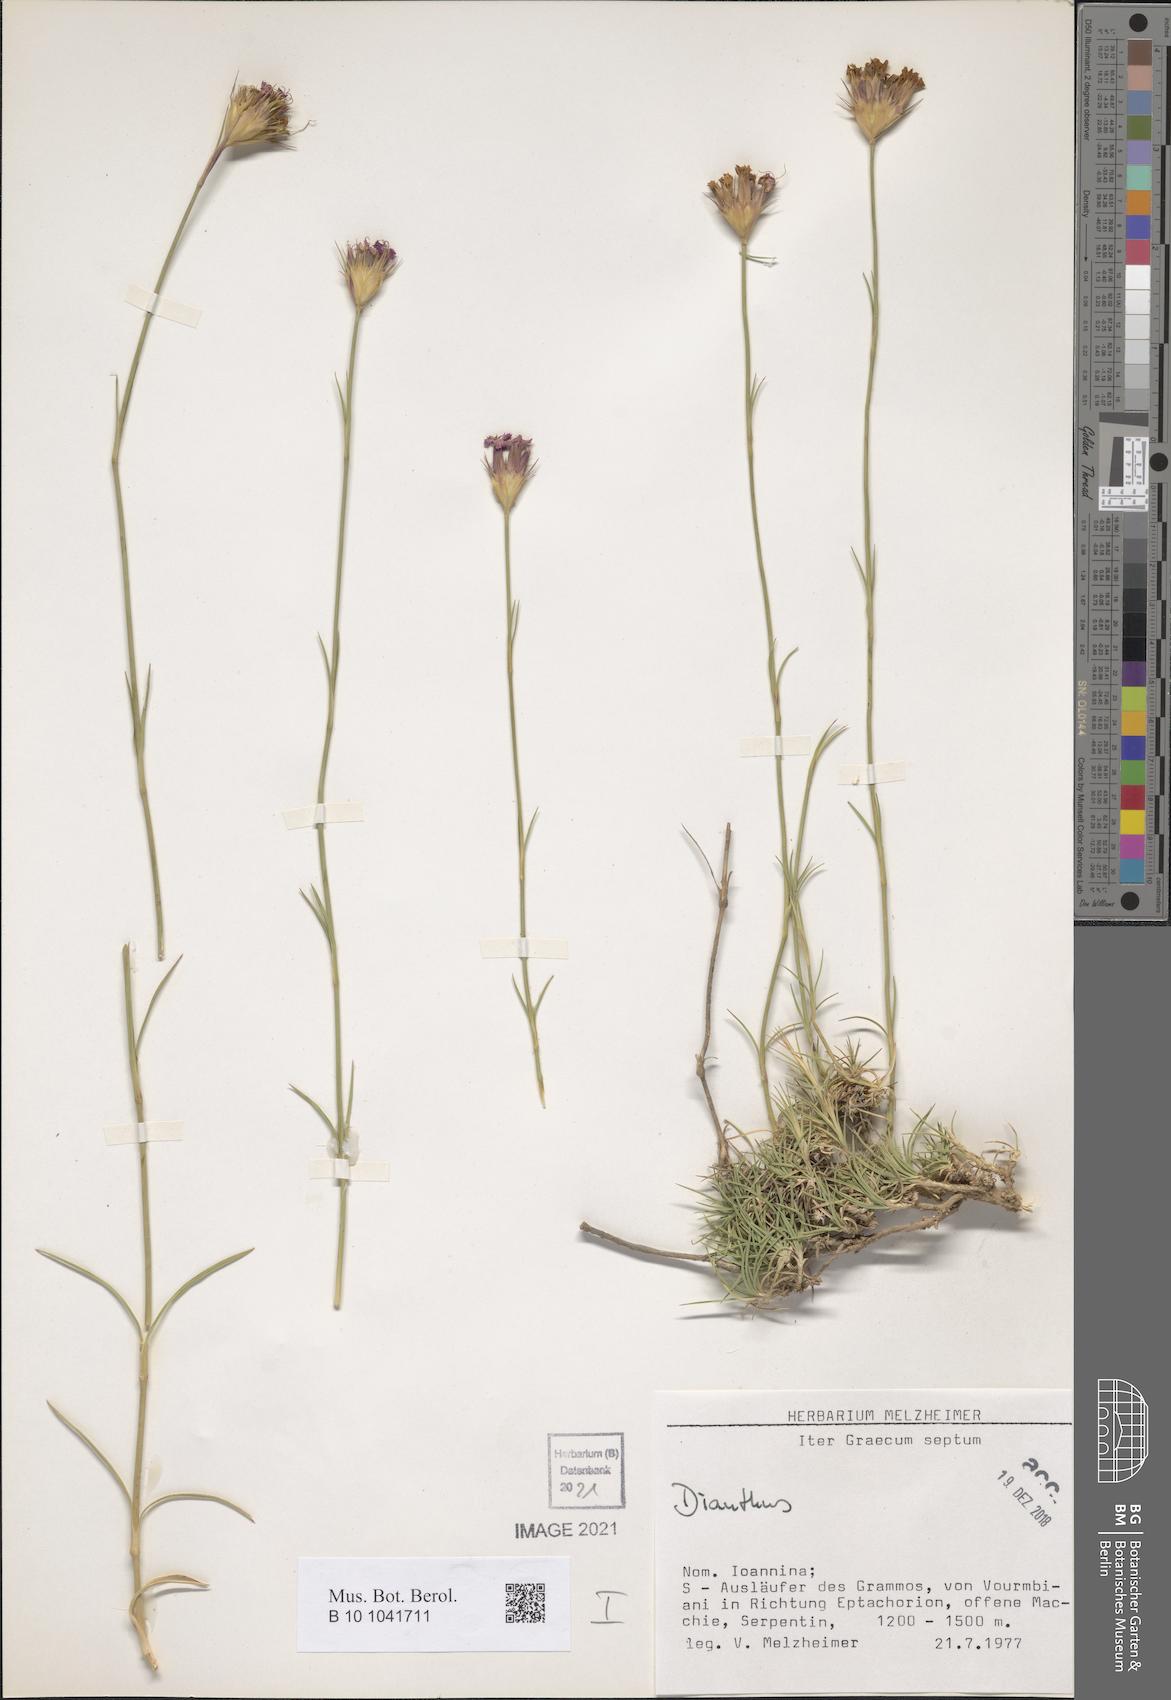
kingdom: Plantae
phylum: Tracheophyta
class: Magnoliopsida
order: Caryophyllales
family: Caryophyllaceae
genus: Dianthus
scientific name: Dianthus
